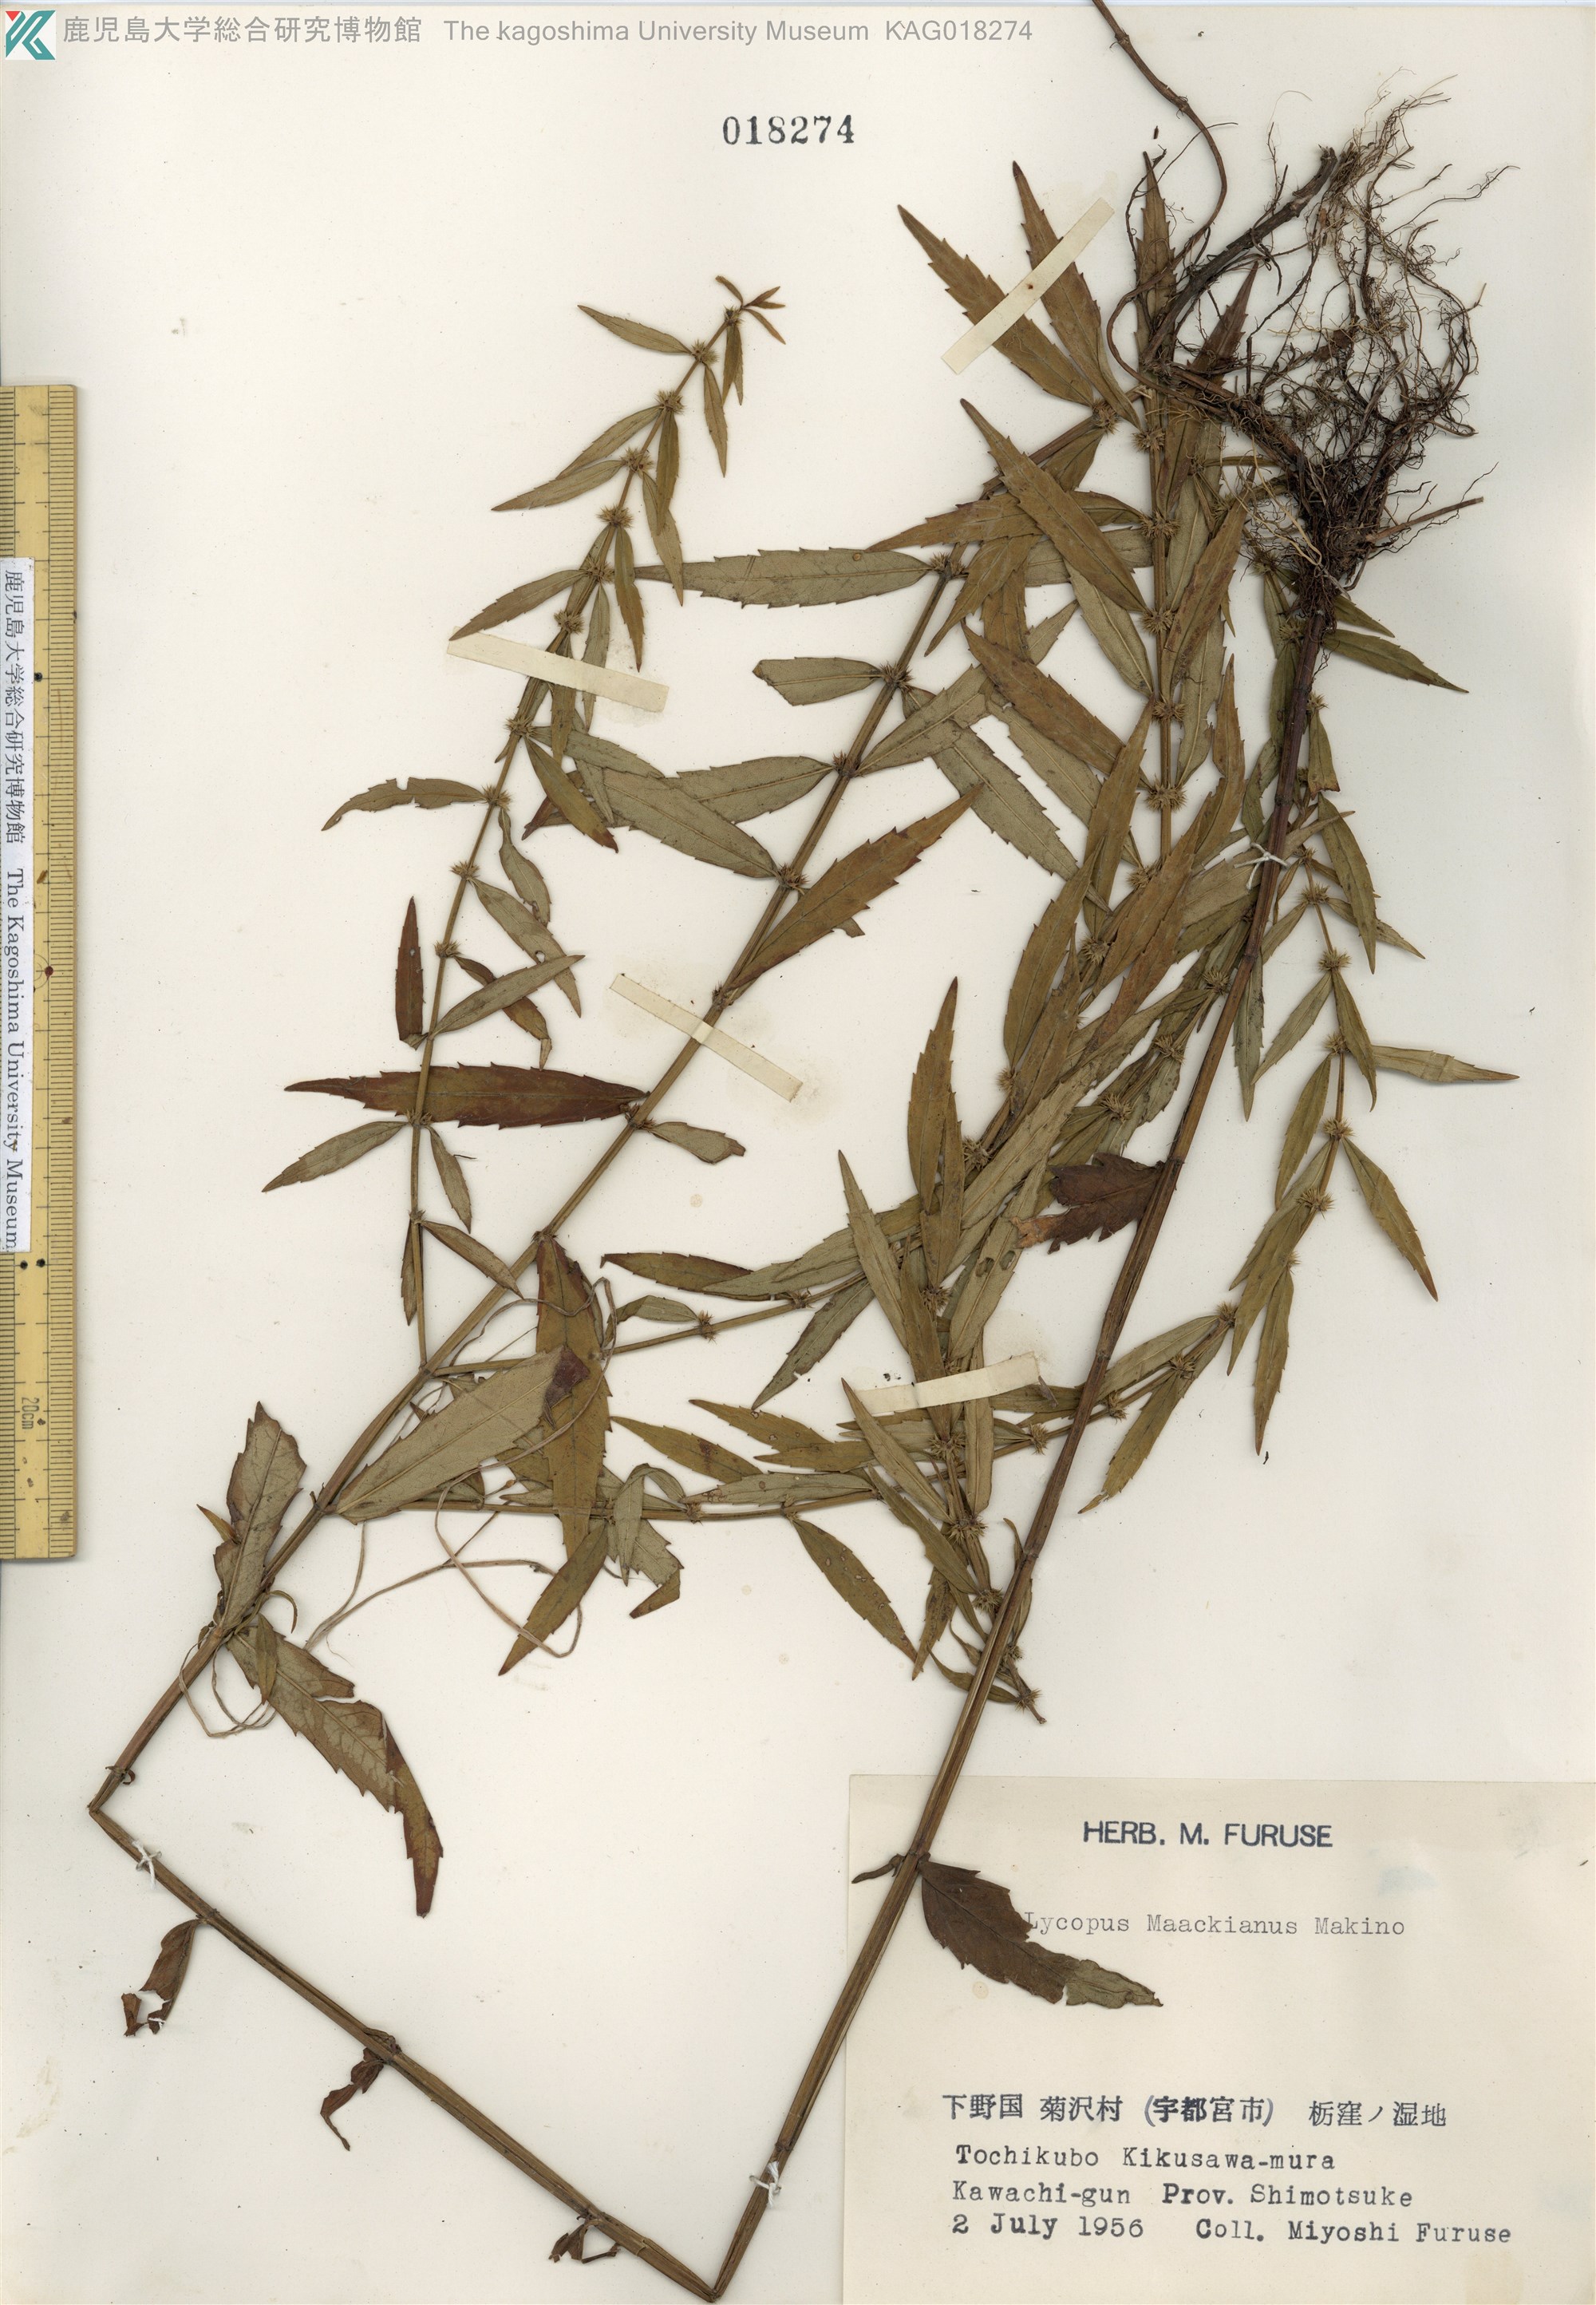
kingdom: Plantae
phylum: Tracheophyta
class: Magnoliopsida
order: Lamiales
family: Lamiaceae
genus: Lycopus
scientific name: Lycopus lucidus
